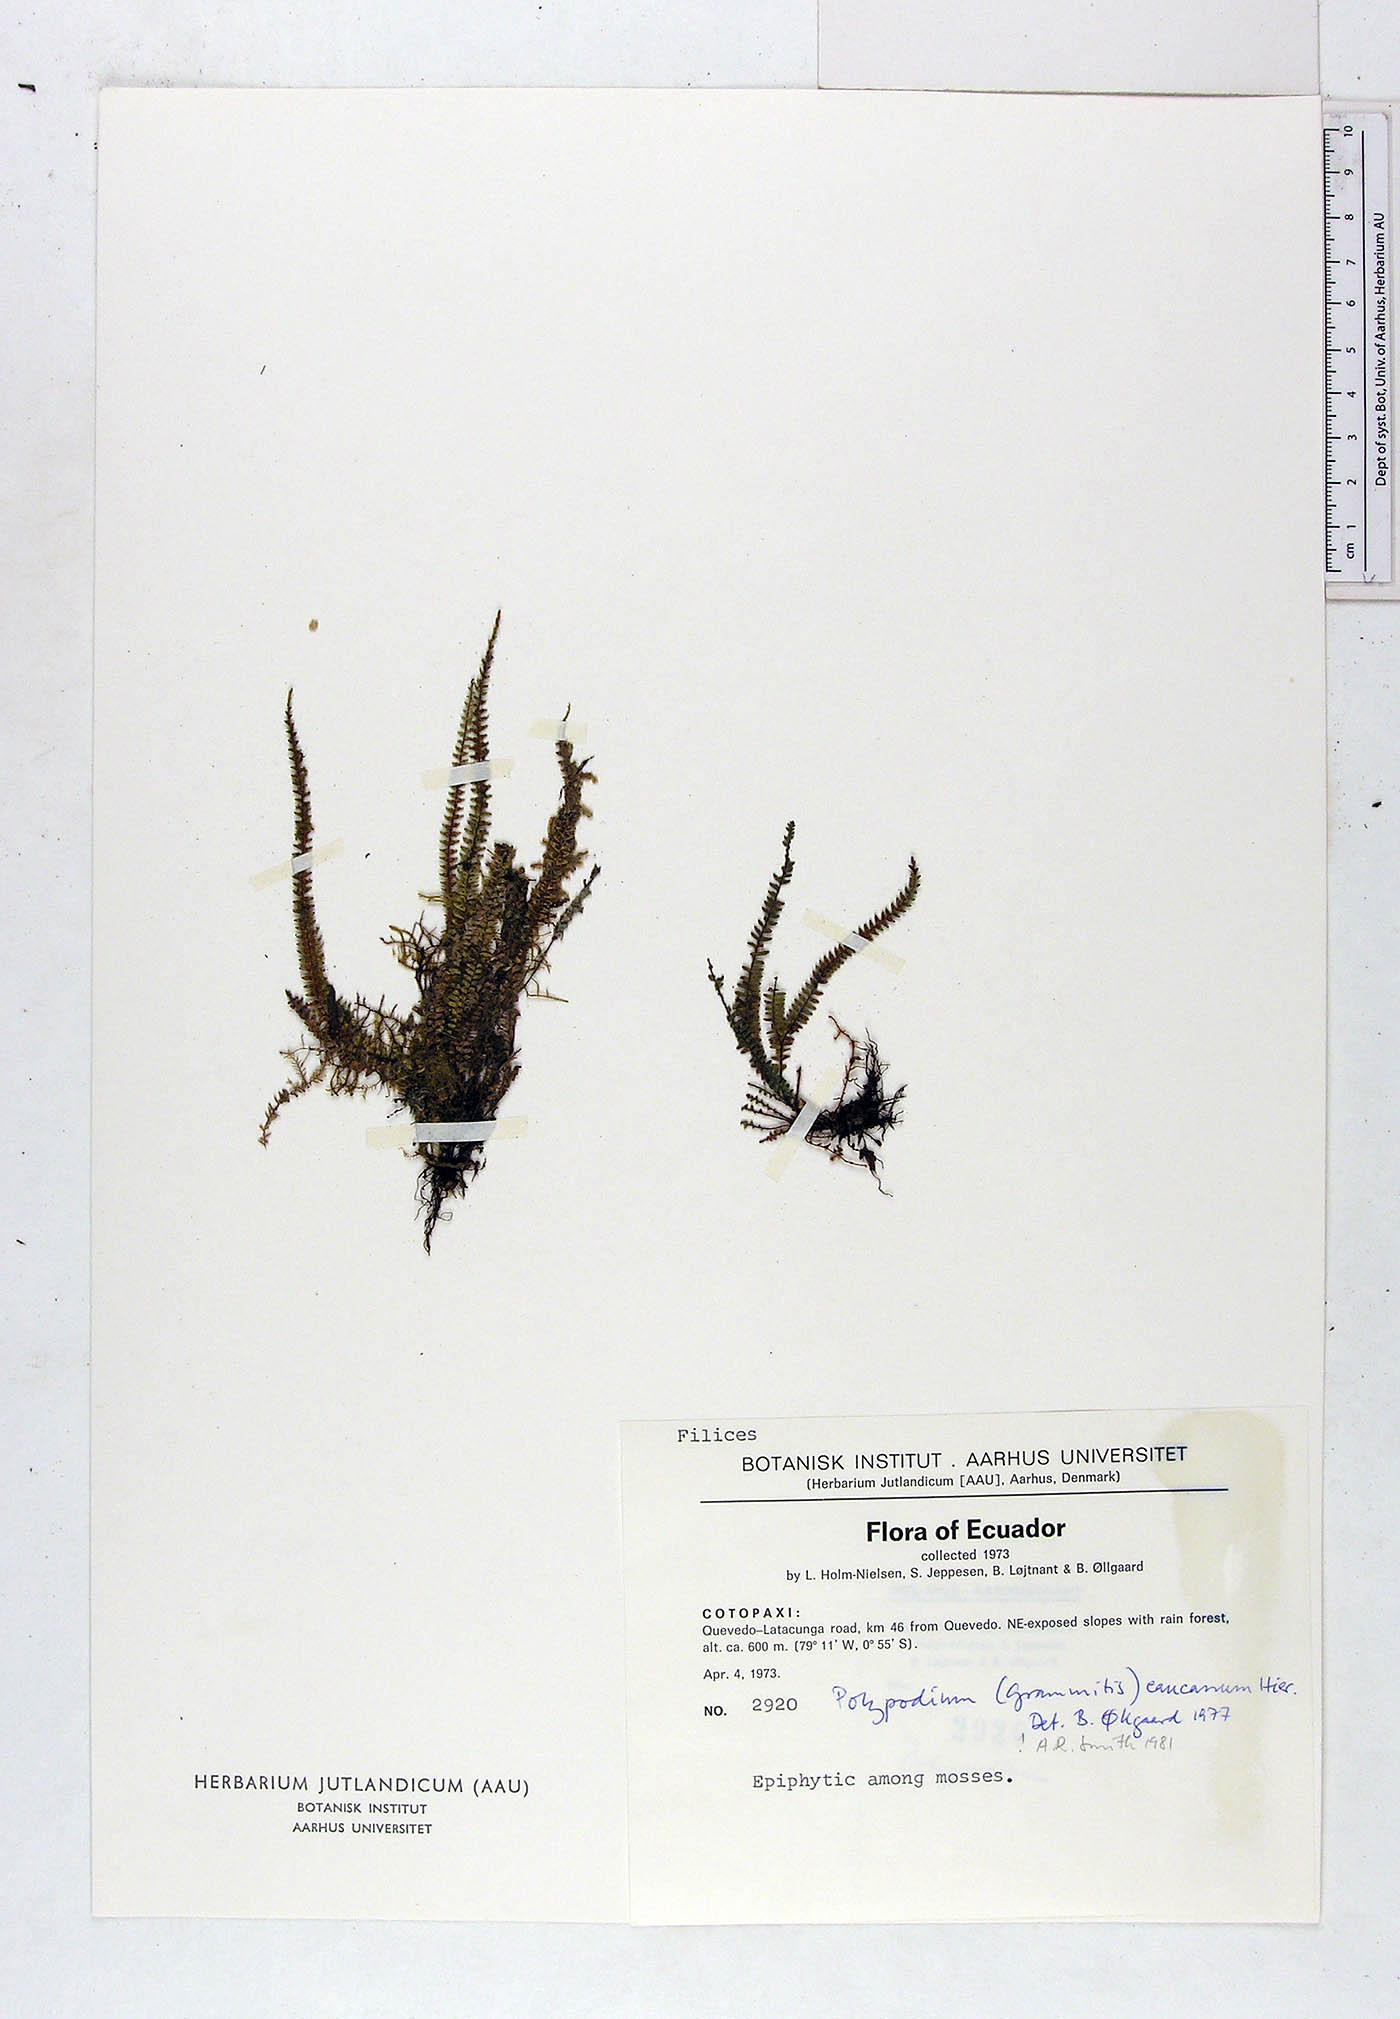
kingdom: Plantae
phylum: Tracheophyta
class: Polypodiopsida
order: Polypodiales
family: Polypodiaceae
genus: Moranopteris
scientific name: Moranopteris caucana
